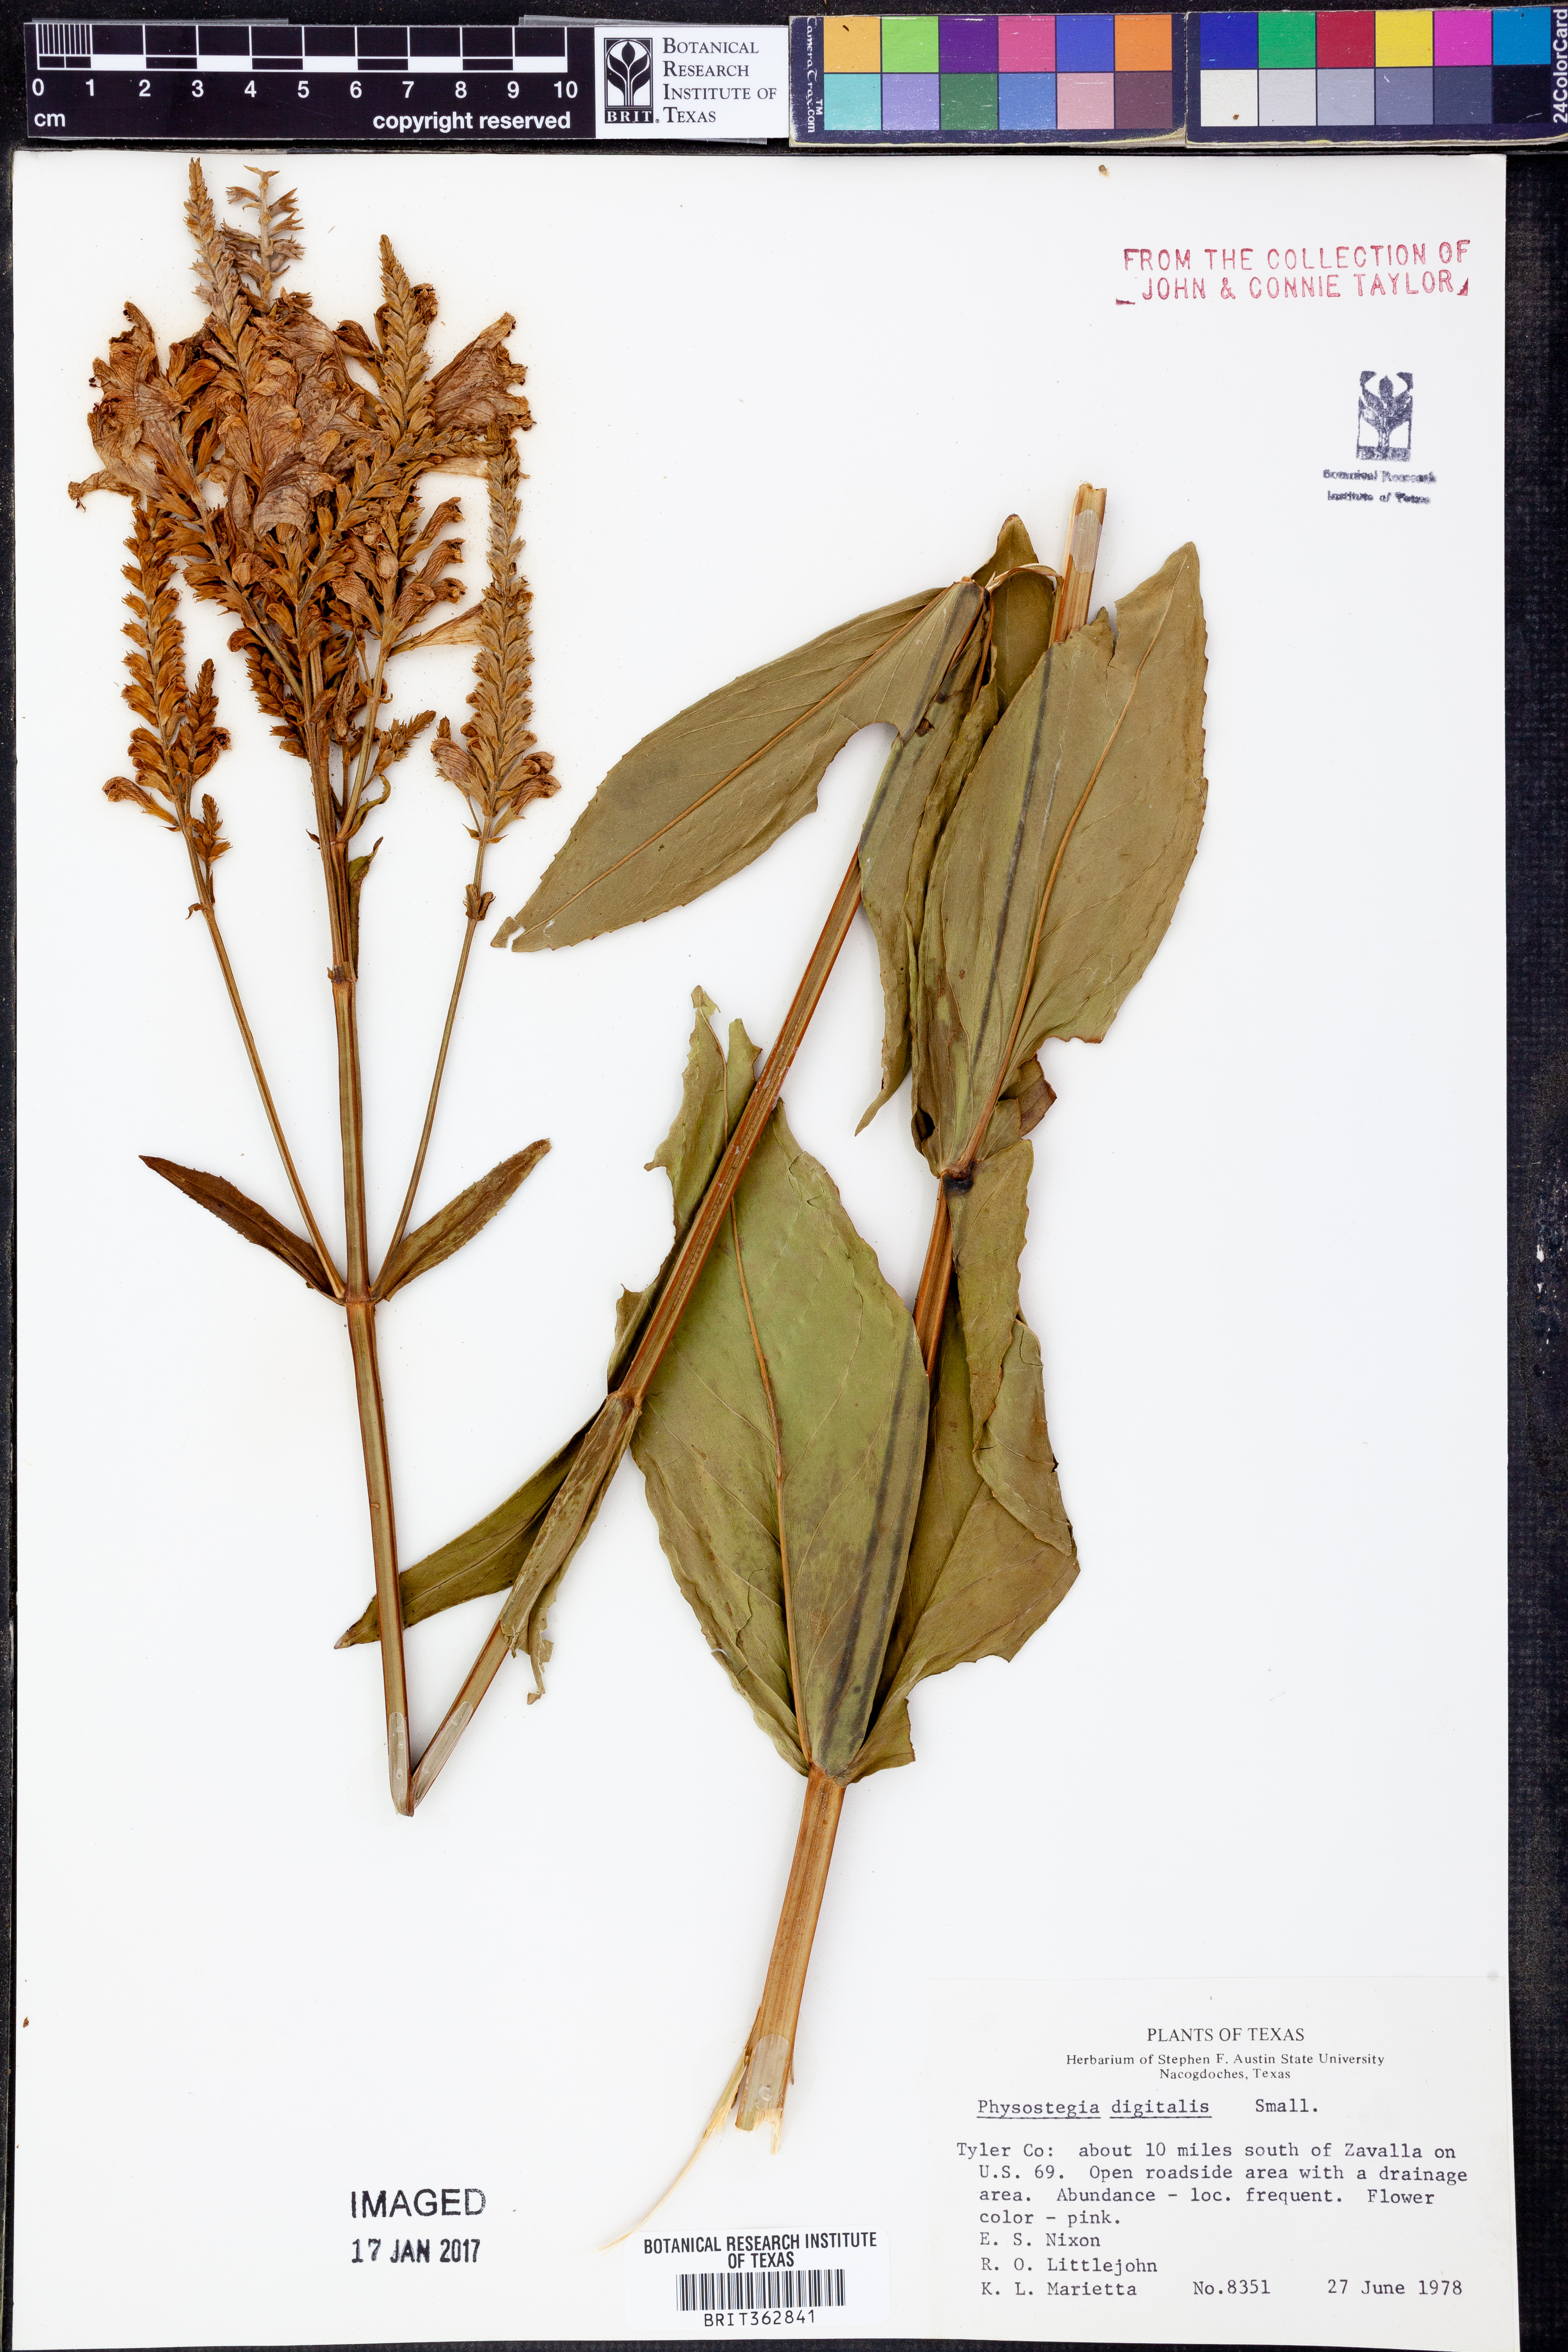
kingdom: Plantae
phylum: Tracheophyta
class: Magnoliopsida
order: Lamiales
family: Lamiaceae
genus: Physostegia
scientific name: Physostegia digitalis
